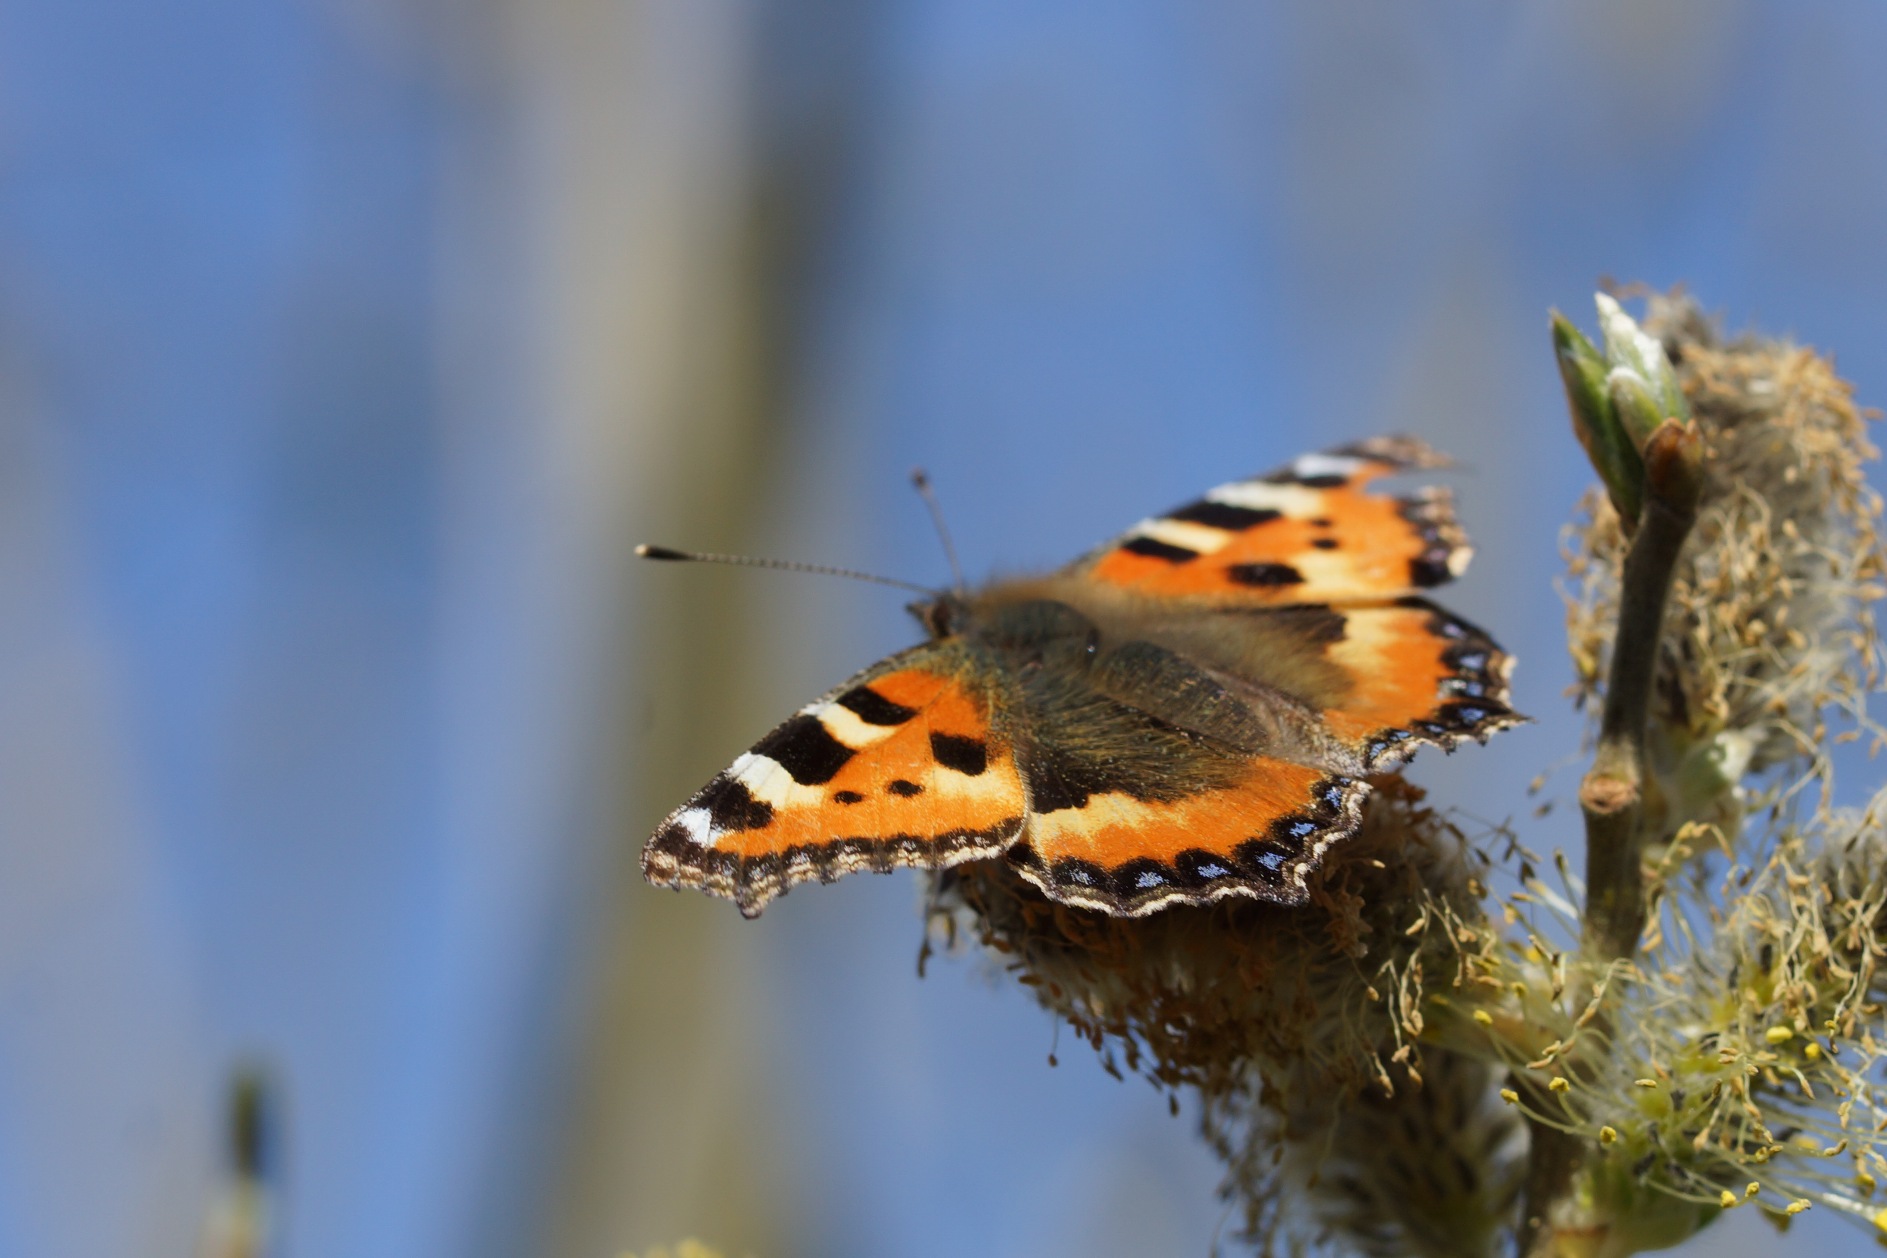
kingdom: Animalia
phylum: Arthropoda
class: Insecta
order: Lepidoptera
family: Nymphalidae
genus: Aglais
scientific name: Aglais urticae
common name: Nældens takvinge
